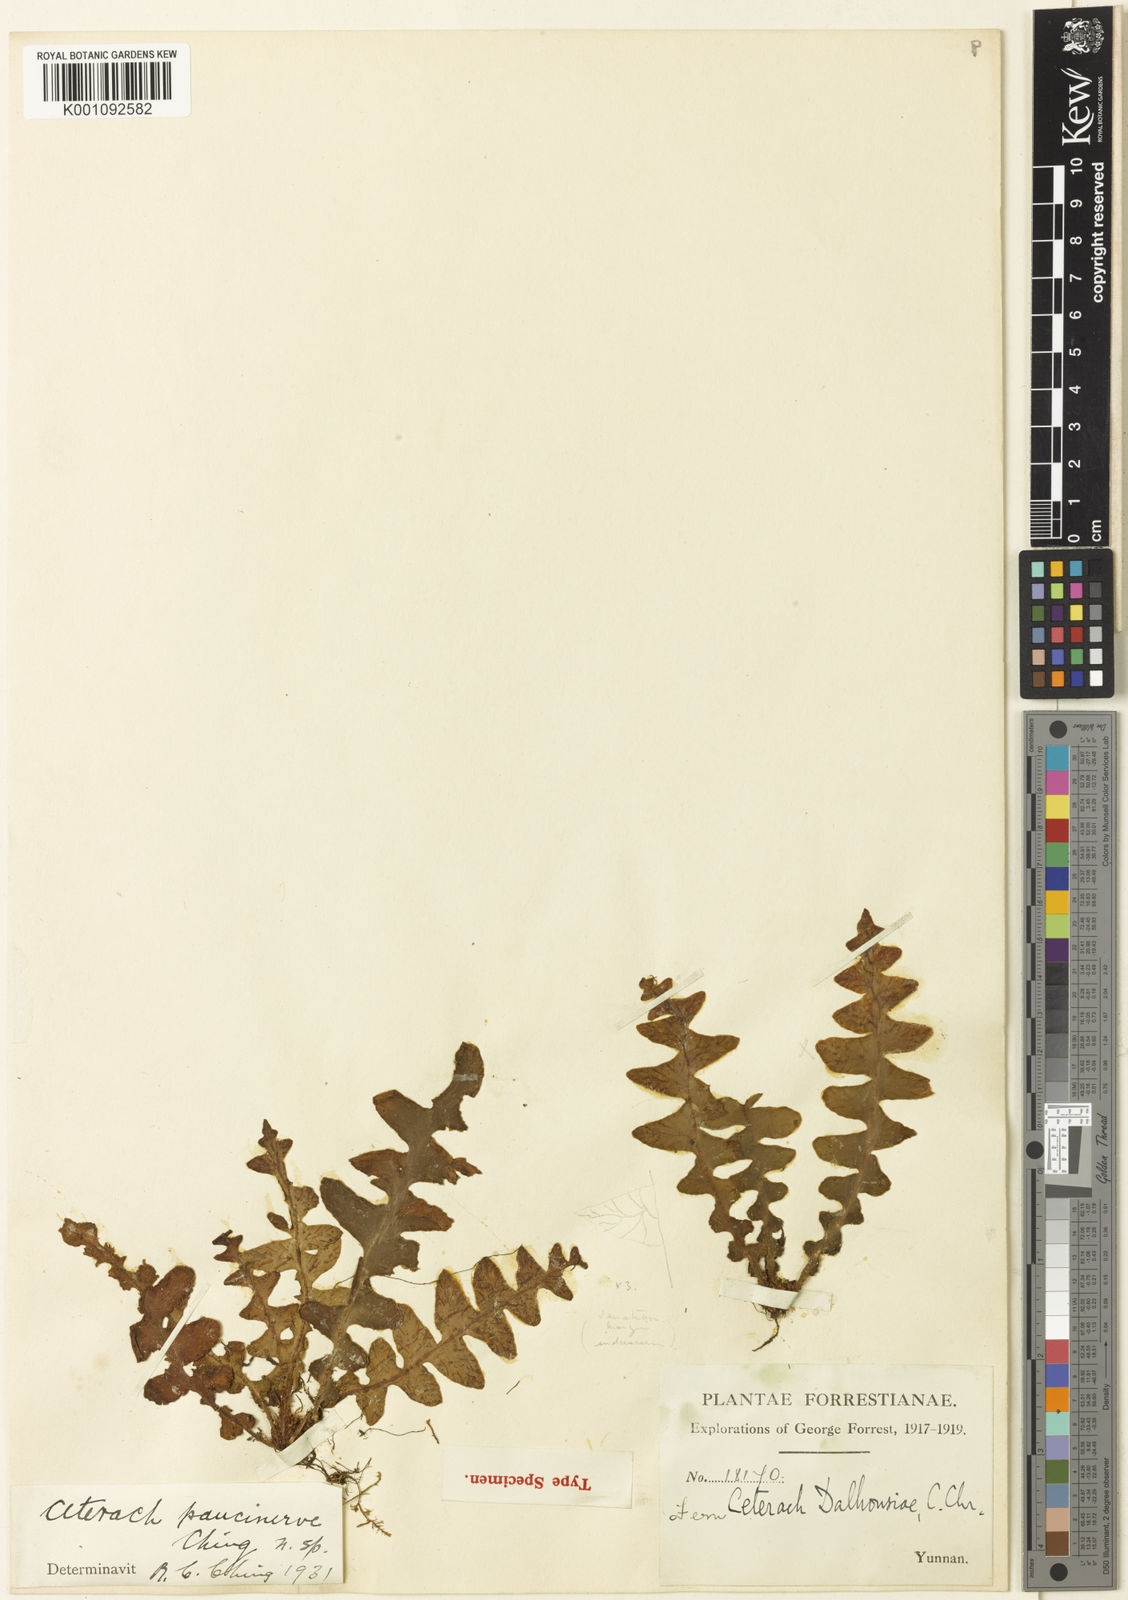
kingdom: Plantae
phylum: Tracheophyta
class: Polypodiopsida
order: Polypodiales
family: Aspleniaceae
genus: Asplenium
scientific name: Asplenium paucivenosum
